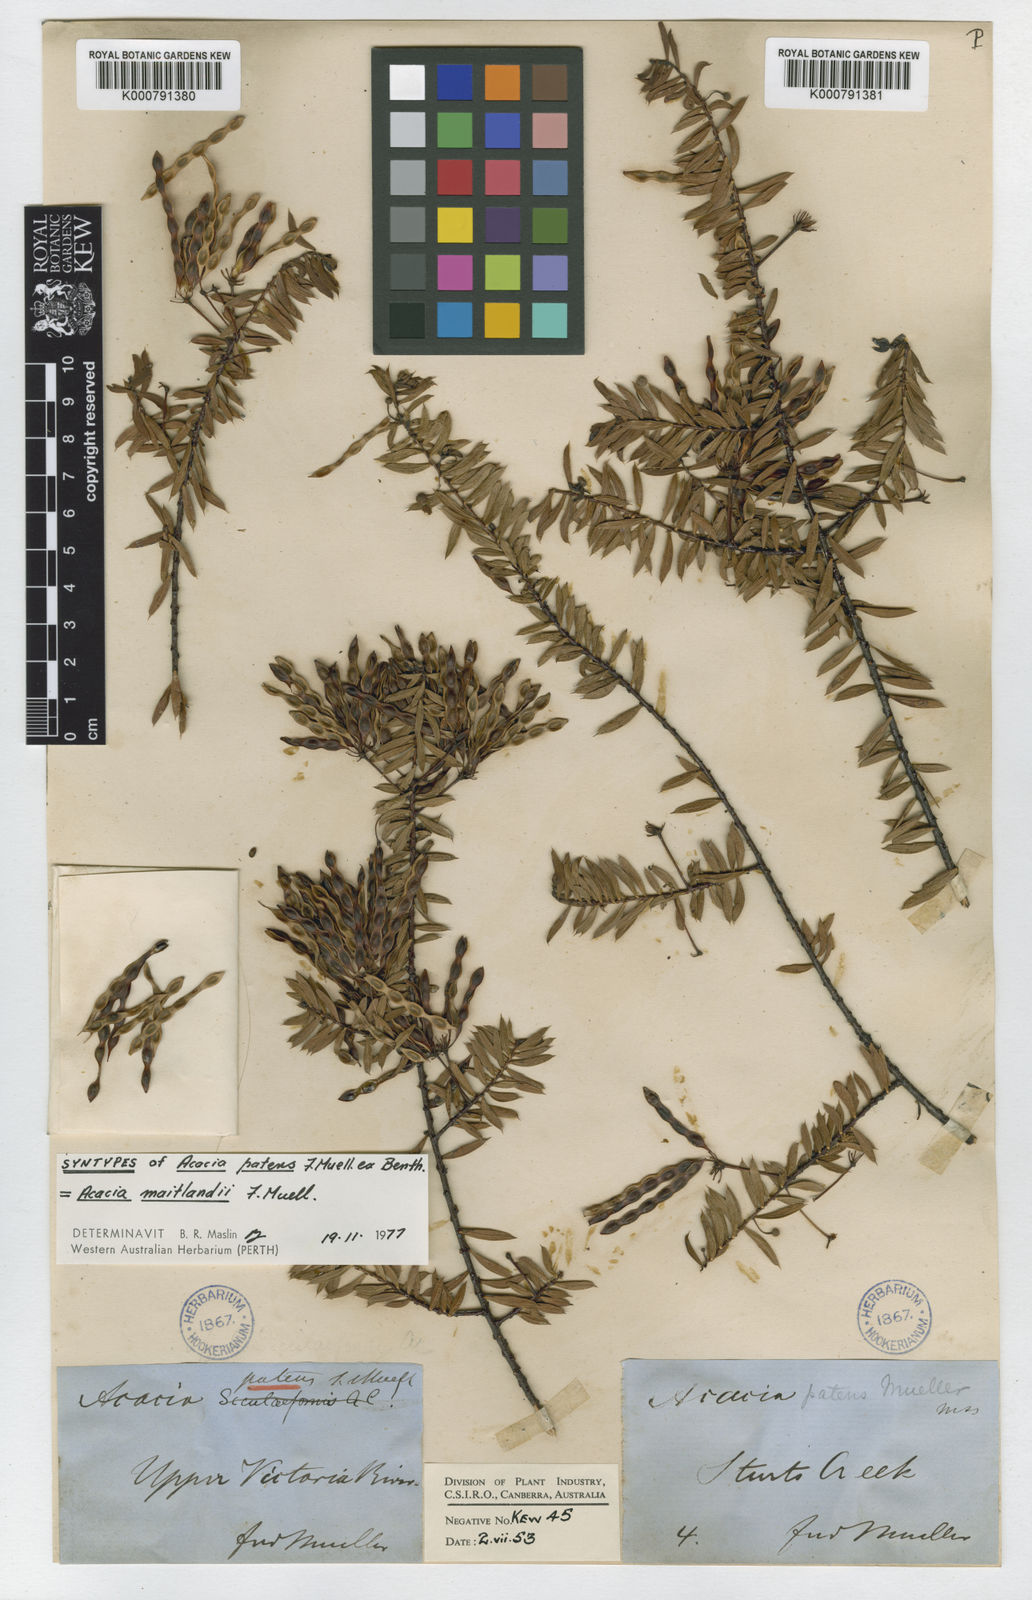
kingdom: Plantae
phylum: Tracheophyta
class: Magnoliopsida
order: Fabales
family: Fabaceae
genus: Acacia
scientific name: Acacia maitlandii
